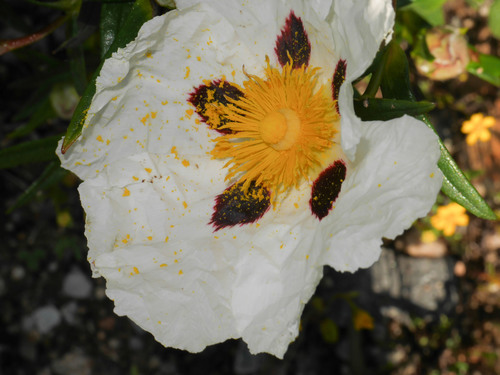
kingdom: Plantae
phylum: Tracheophyta
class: Magnoliopsida
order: Malvales
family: Cistaceae
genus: Cistus
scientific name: Cistus ladanifer
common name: Common gum cistus
